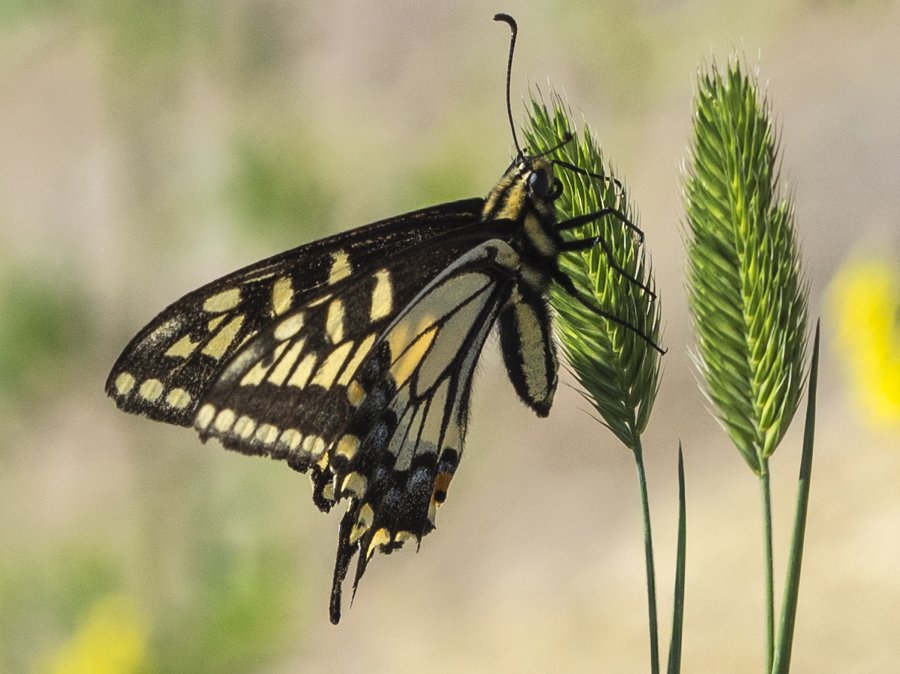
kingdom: Animalia
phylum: Arthropoda
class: Insecta
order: Lepidoptera
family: Papilionidae
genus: Papilio
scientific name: Papilio machaon
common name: Old World Swallowtail
